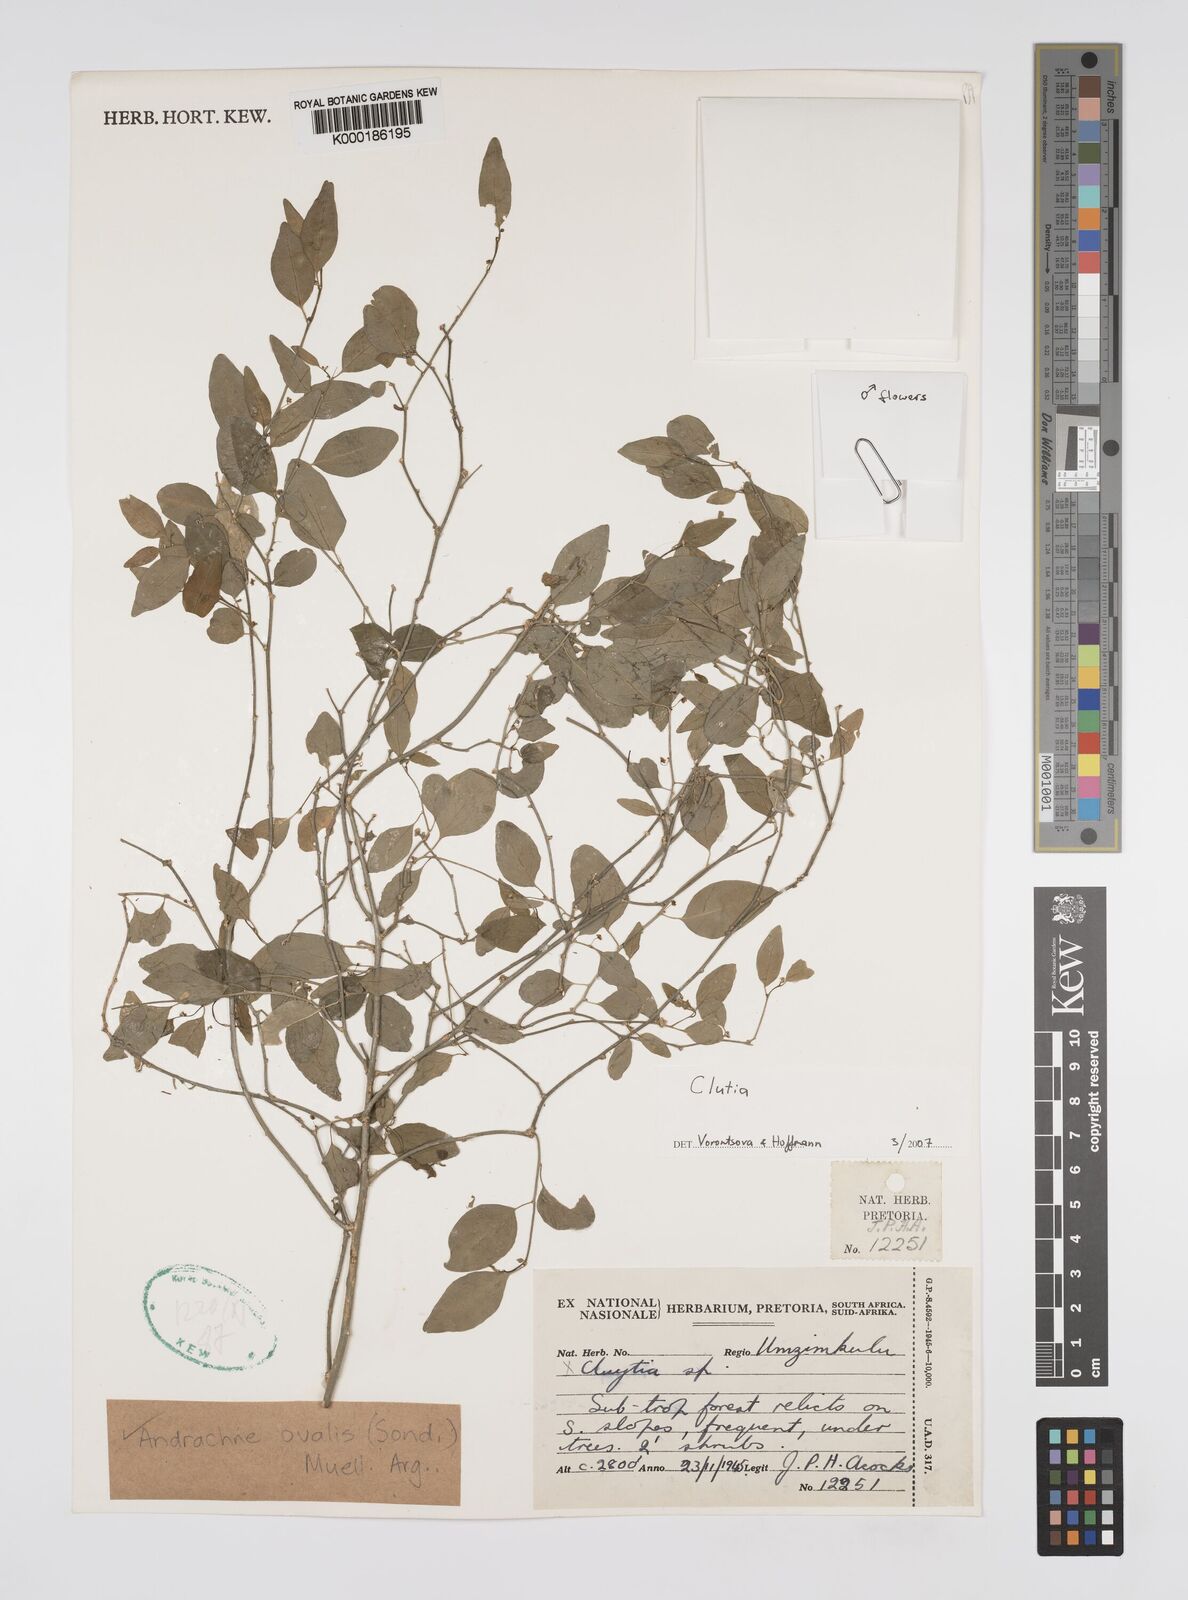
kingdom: Plantae
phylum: Tracheophyta
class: Magnoliopsida
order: Malpighiales
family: Phyllanthaceae
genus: Pseudophyllanthus
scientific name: Pseudophyllanthus ovalis
